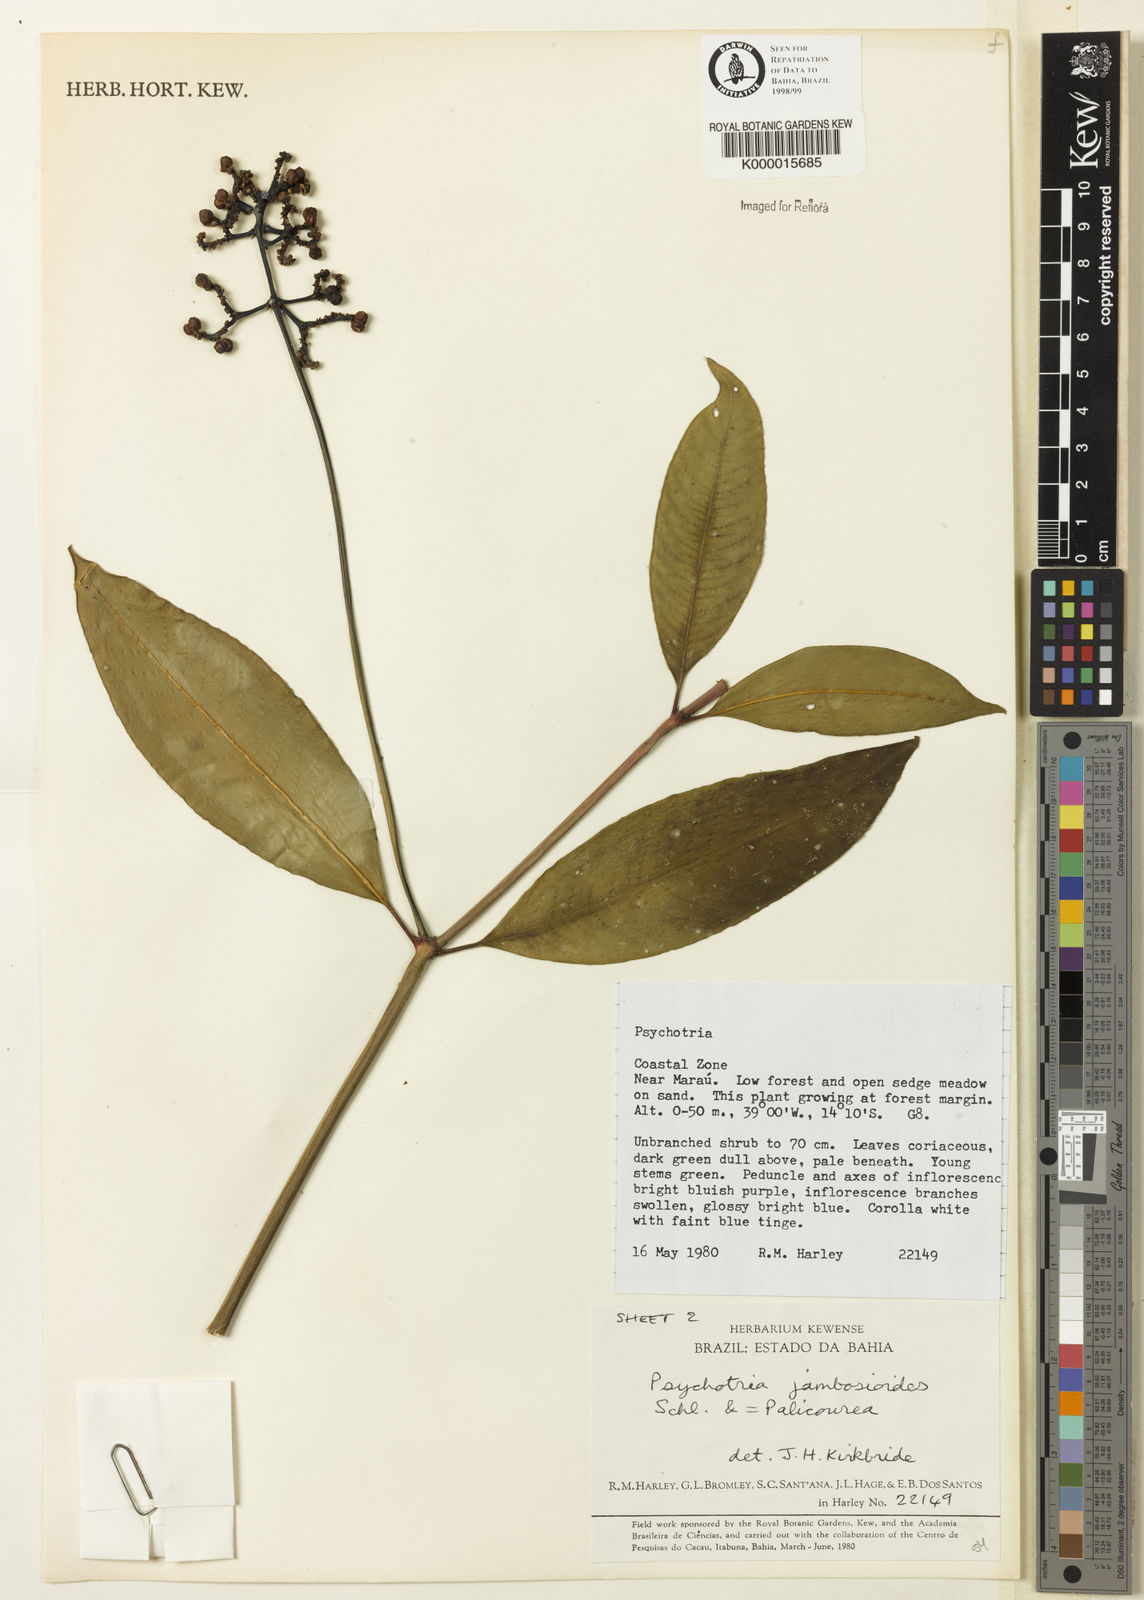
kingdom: Plantae
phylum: Tracheophyta
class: Magnoliopsida
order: Gentianales
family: Rubiaceae
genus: Palicourea
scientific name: Palicourea jambosioides
